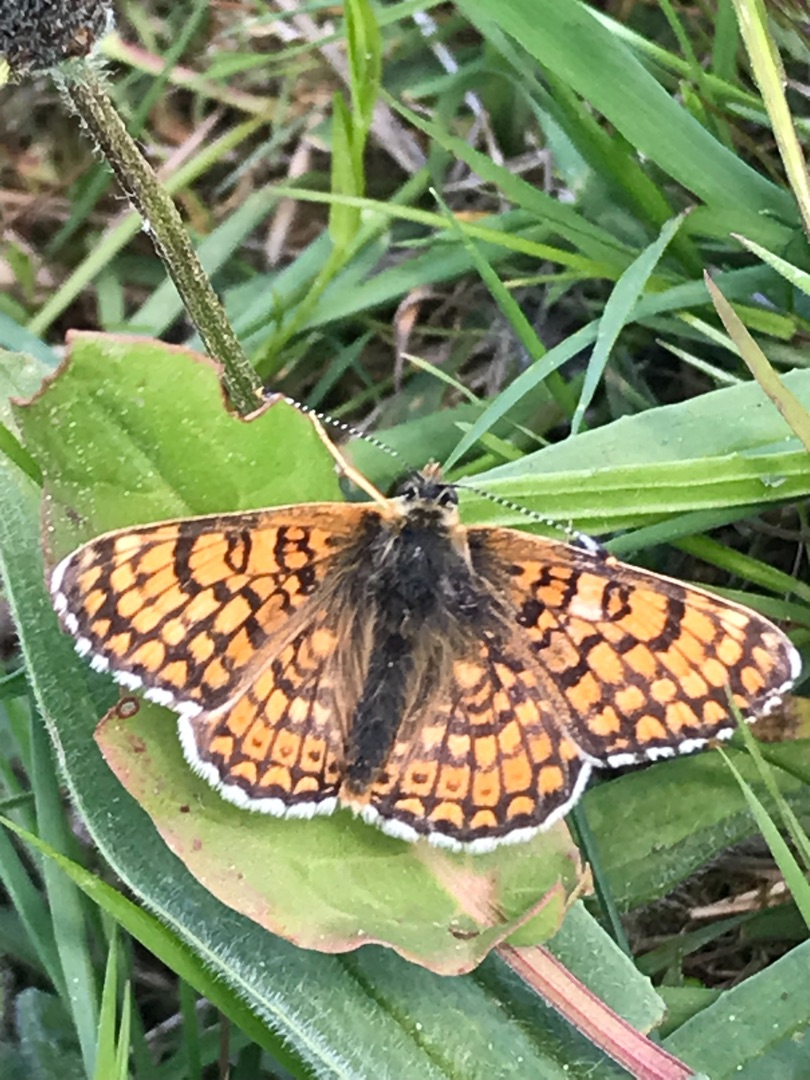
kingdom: Animalia
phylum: Arthropoda
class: Insecta
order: Lepidoptera
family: Nymphalidae
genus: Melitaea
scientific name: Melitaea cinxia
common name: Okkergul pletvinge
